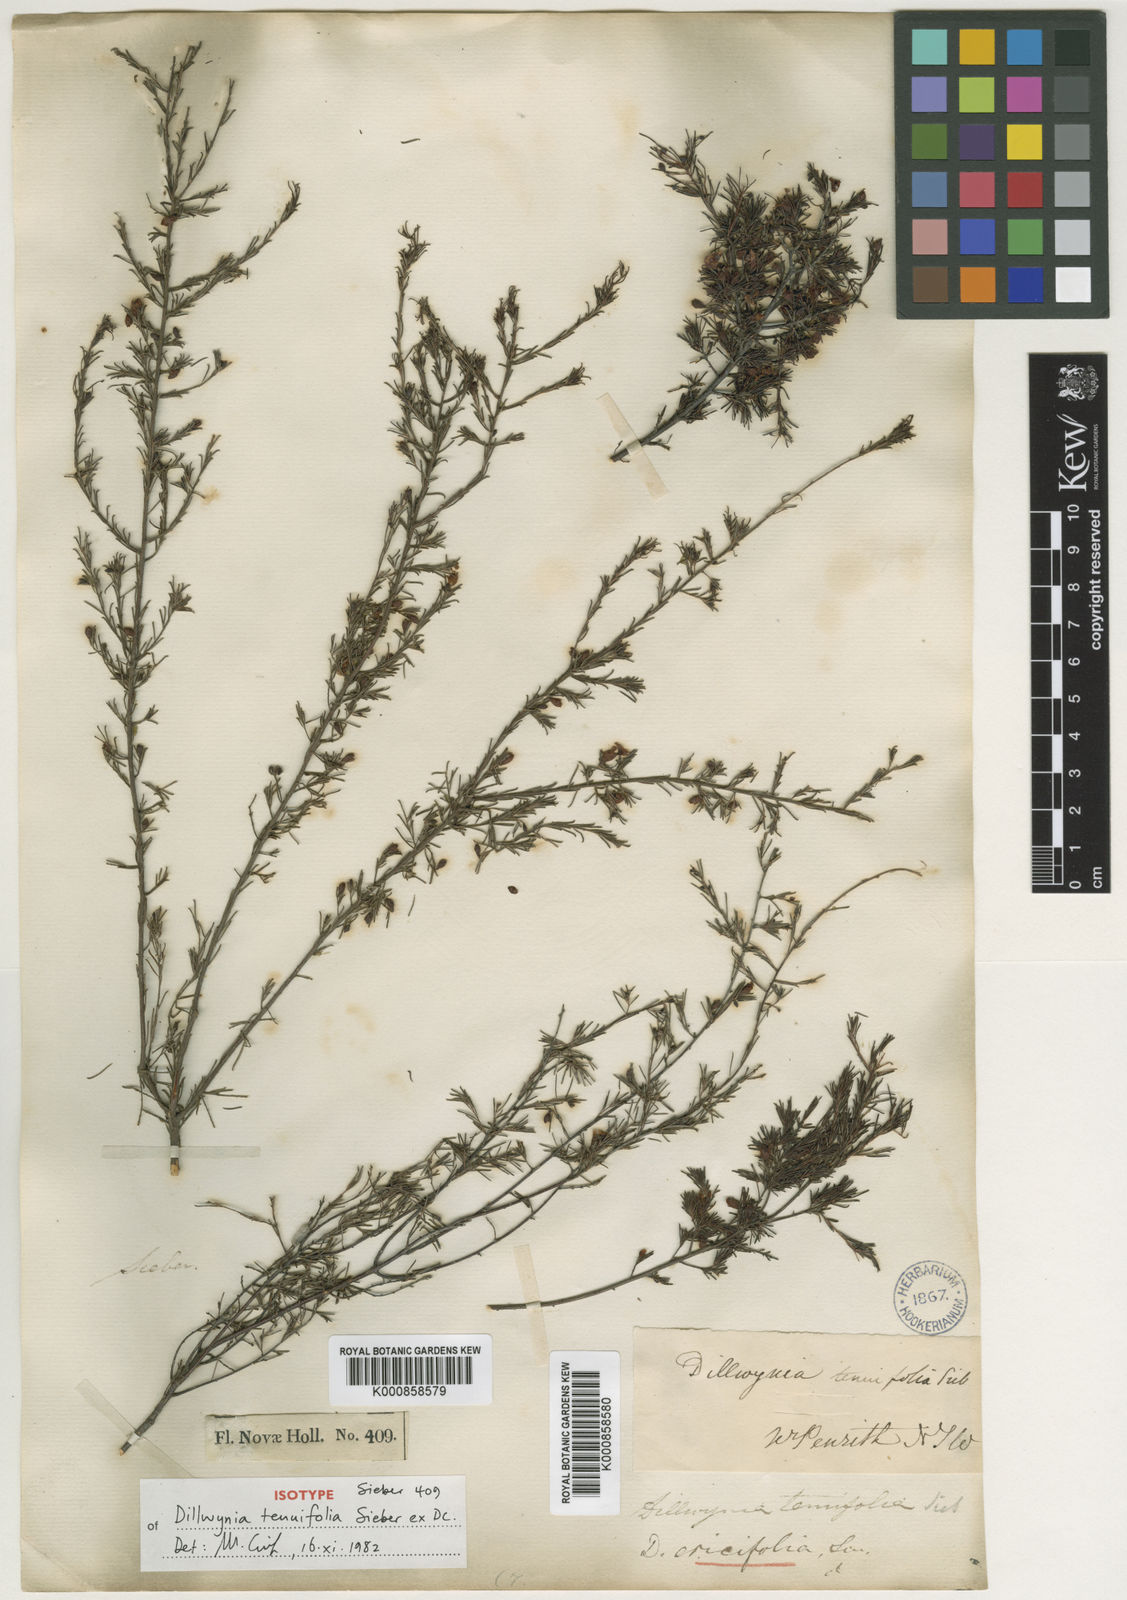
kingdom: Plantae
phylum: Tracheophyta
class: Magnoliopsida
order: Fabales
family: Fabaceae
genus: Dillwynia
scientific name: Dillwynia tenuifolia
